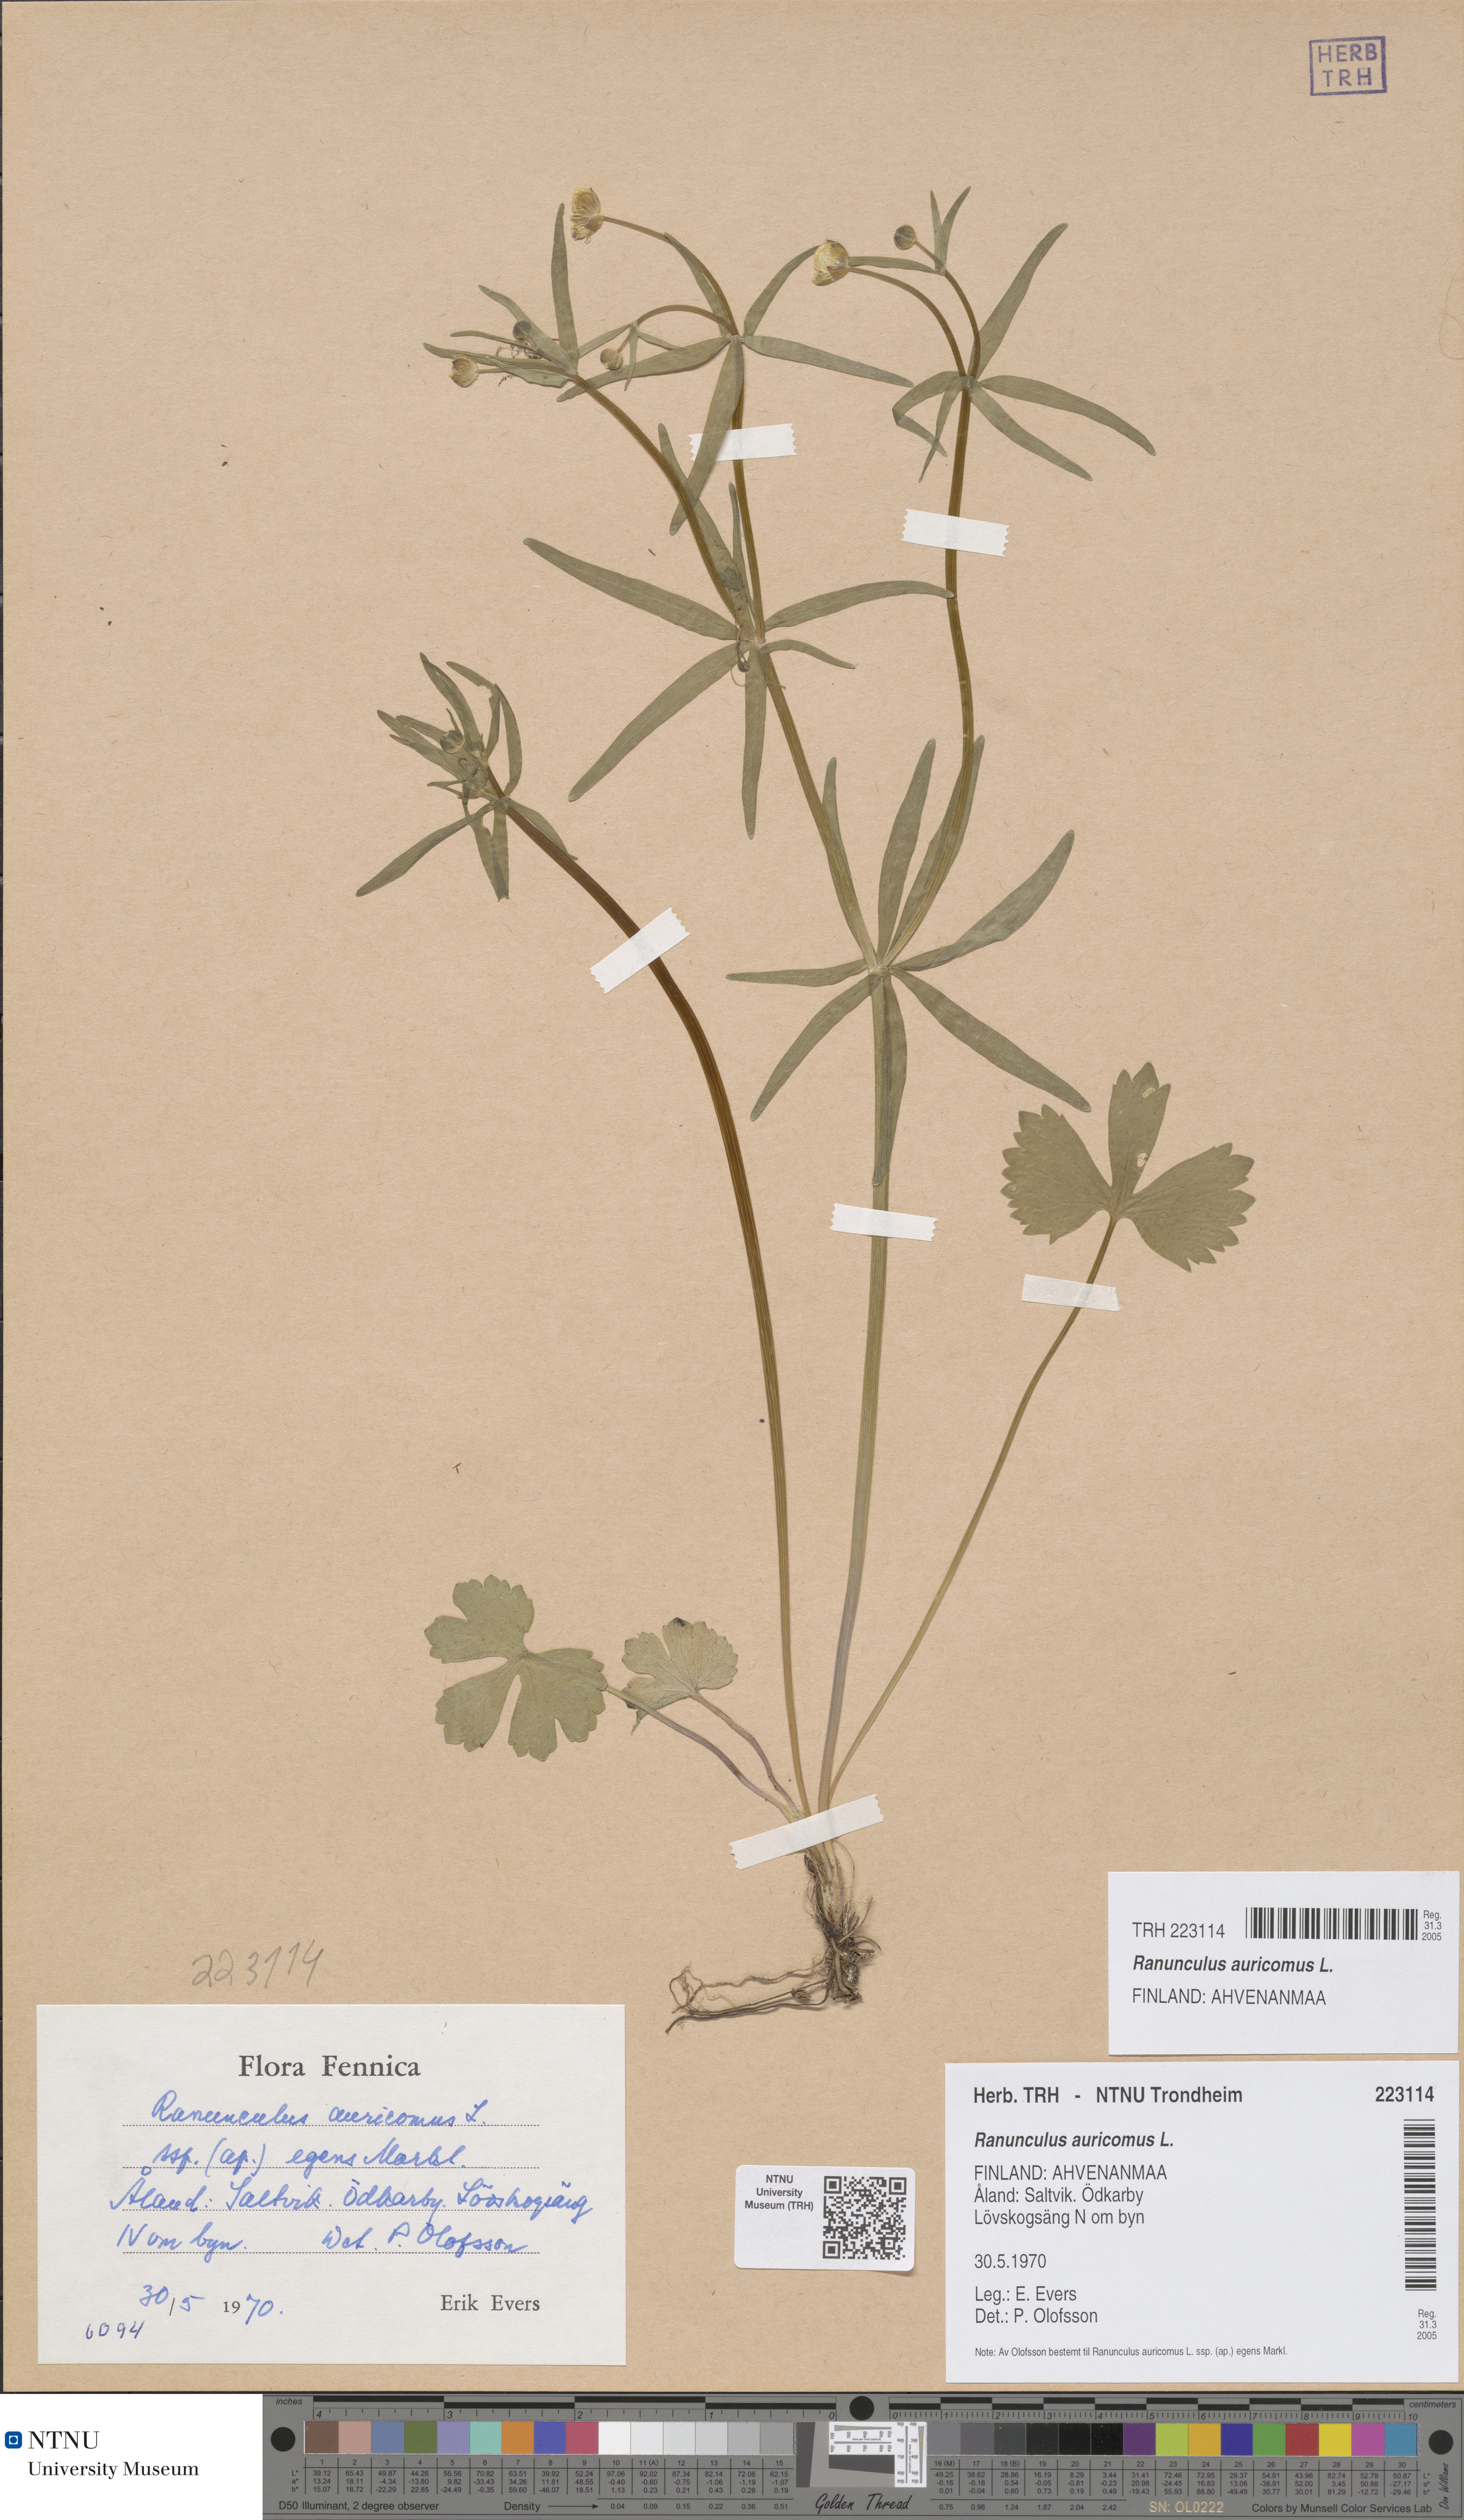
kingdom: Plantae
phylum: Tracheophyta
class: Magnoliopsida
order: Ranunculales
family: Ranunculaceae
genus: Ranunculus
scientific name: Ranunculus auricomus
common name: Goldilocks buttercup
